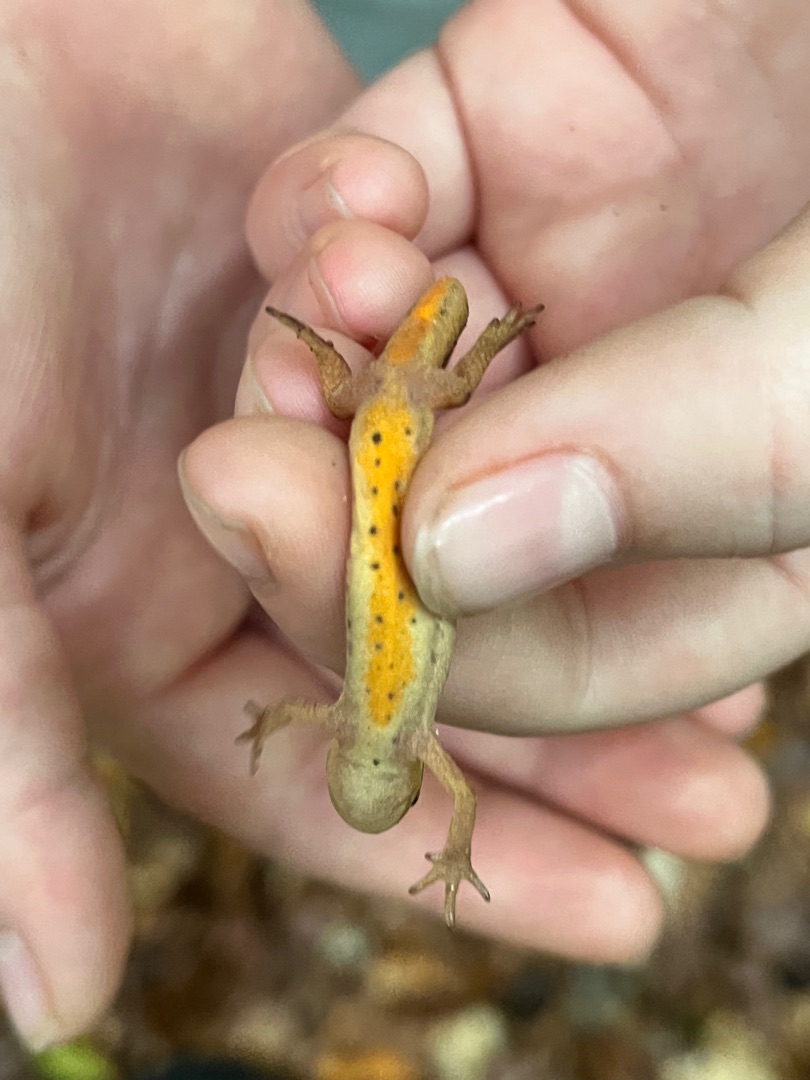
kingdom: Animalia
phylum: Chordata
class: Amphibia
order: Caudata
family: Salamandridae
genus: Lissotriton
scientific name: Lissotriton vulgaris
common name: Lille vandsalamander
